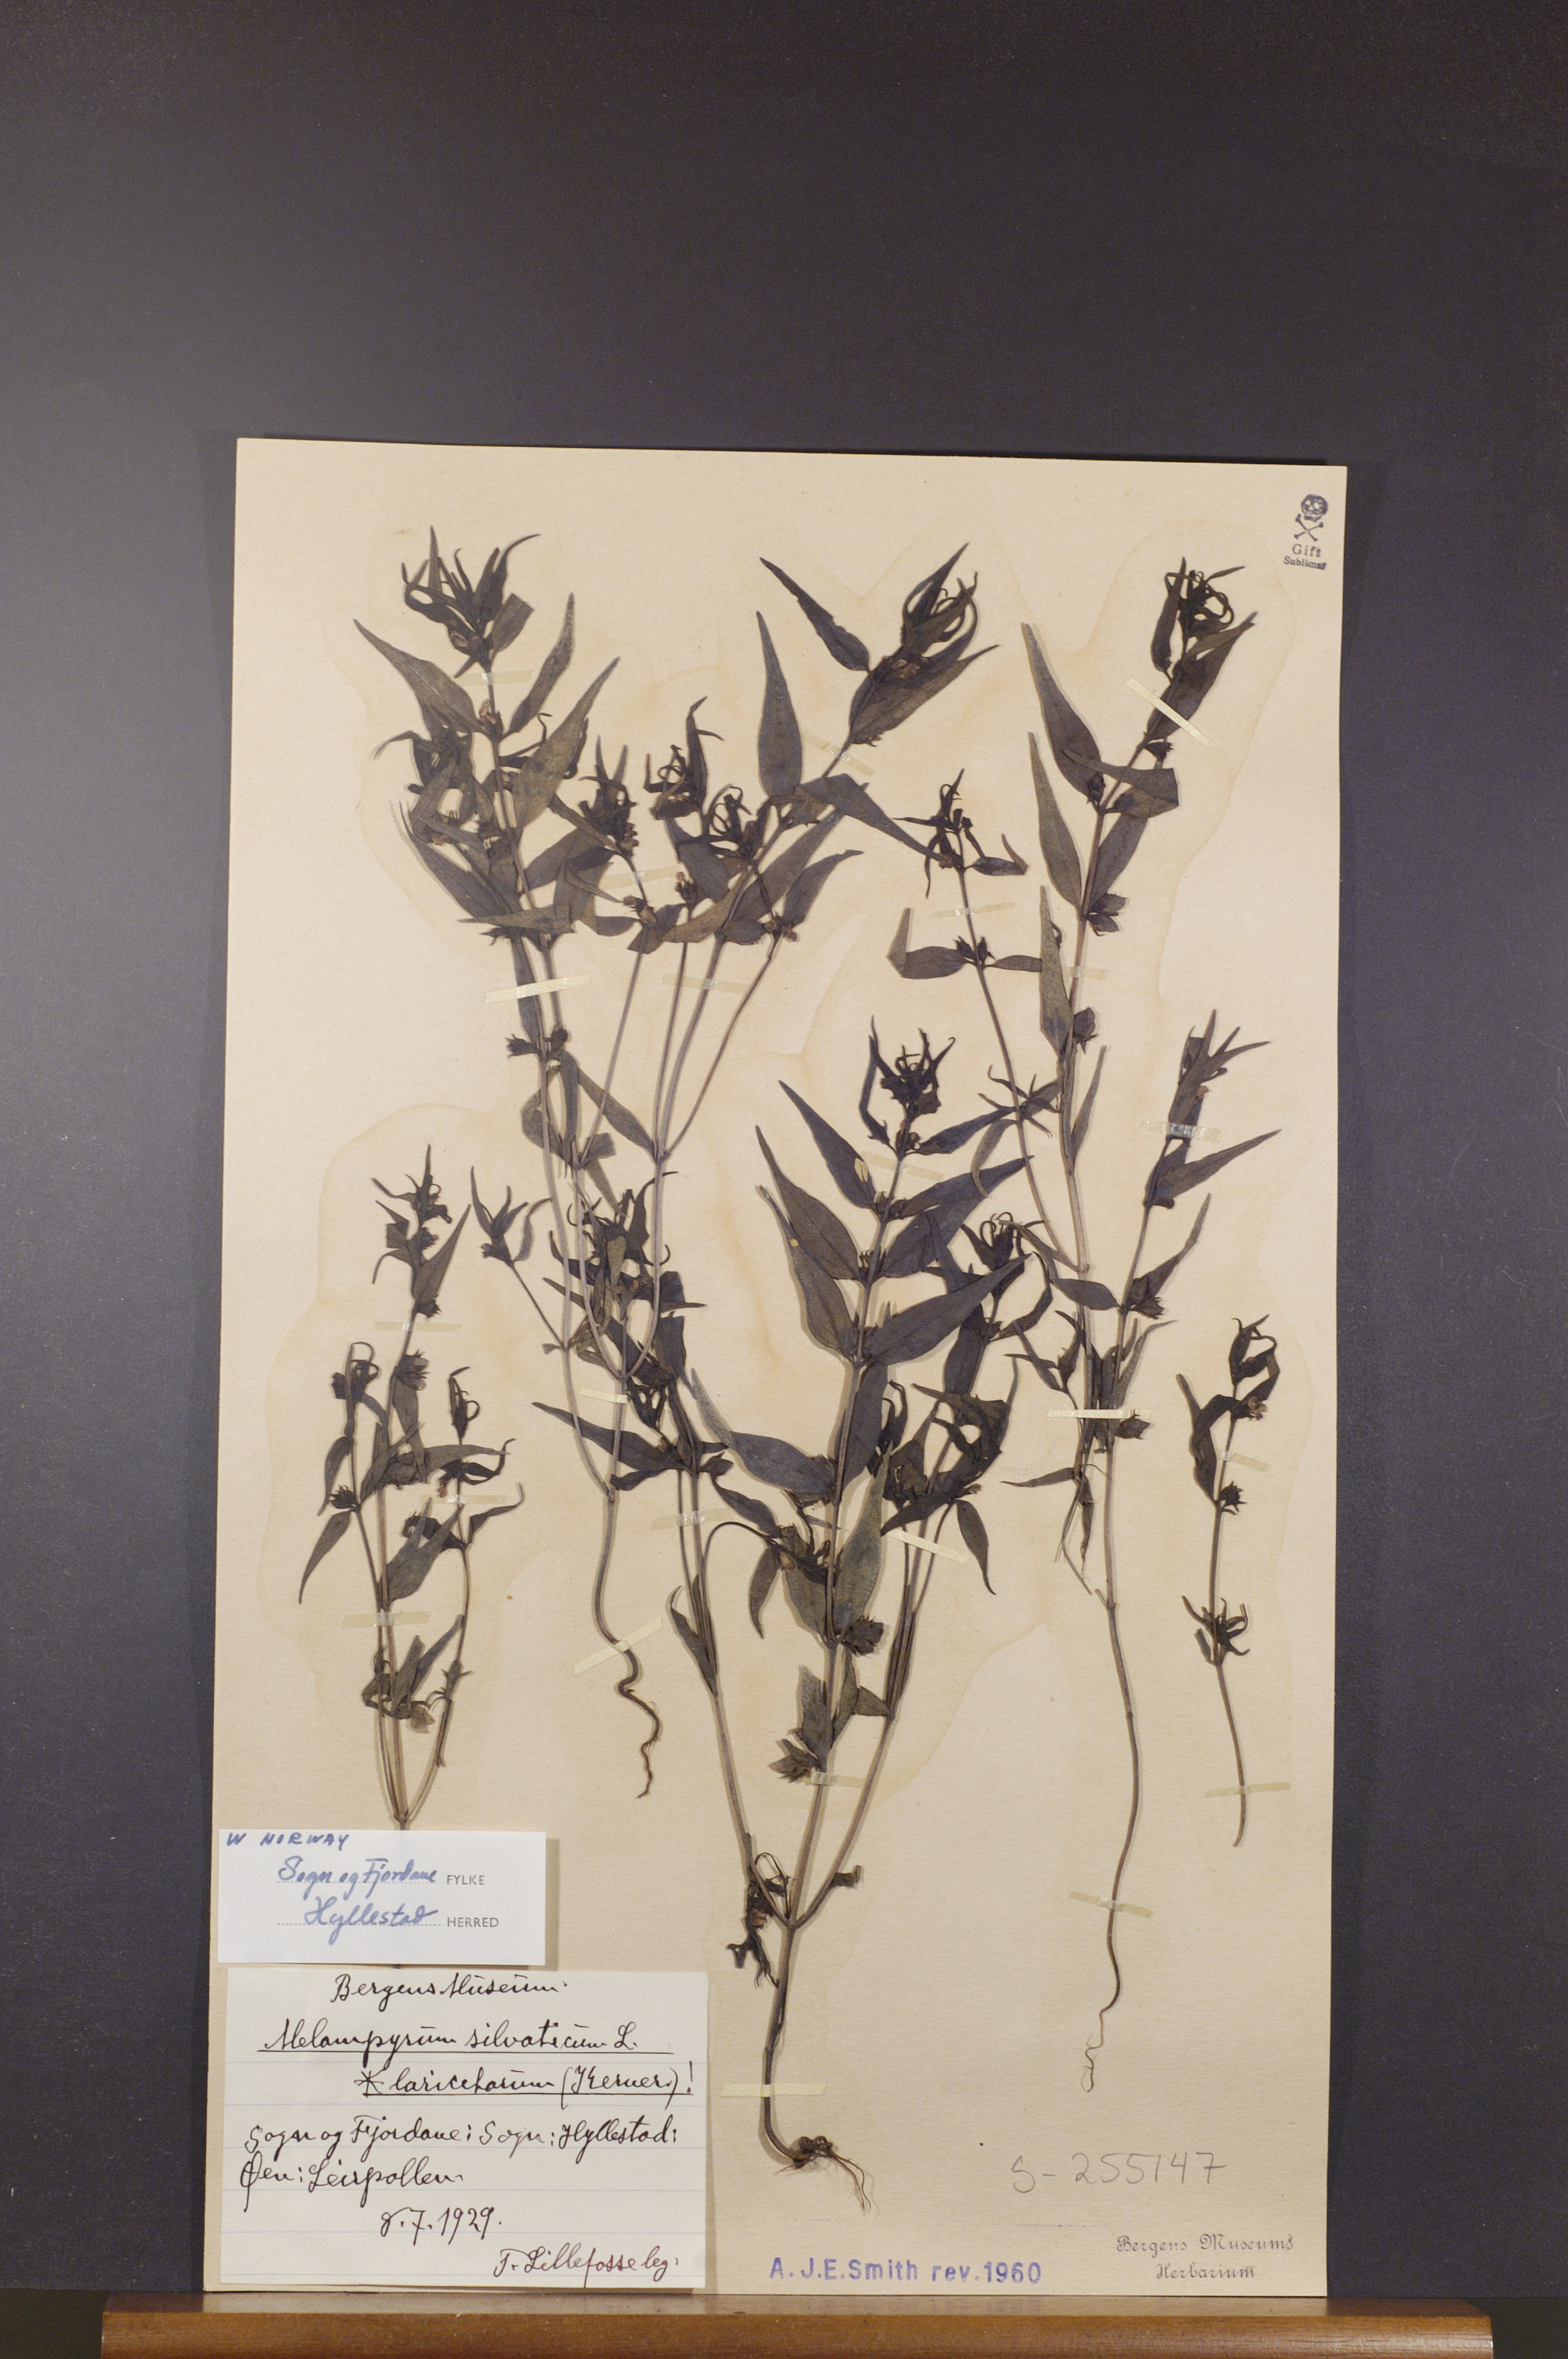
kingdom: Plantae
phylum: Tracheophyta
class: Magnoliopsida
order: Lamiales
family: Orobanchaceae
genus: Melampyrum
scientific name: Melampyrum sylvaticum
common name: Small cow-wheat
